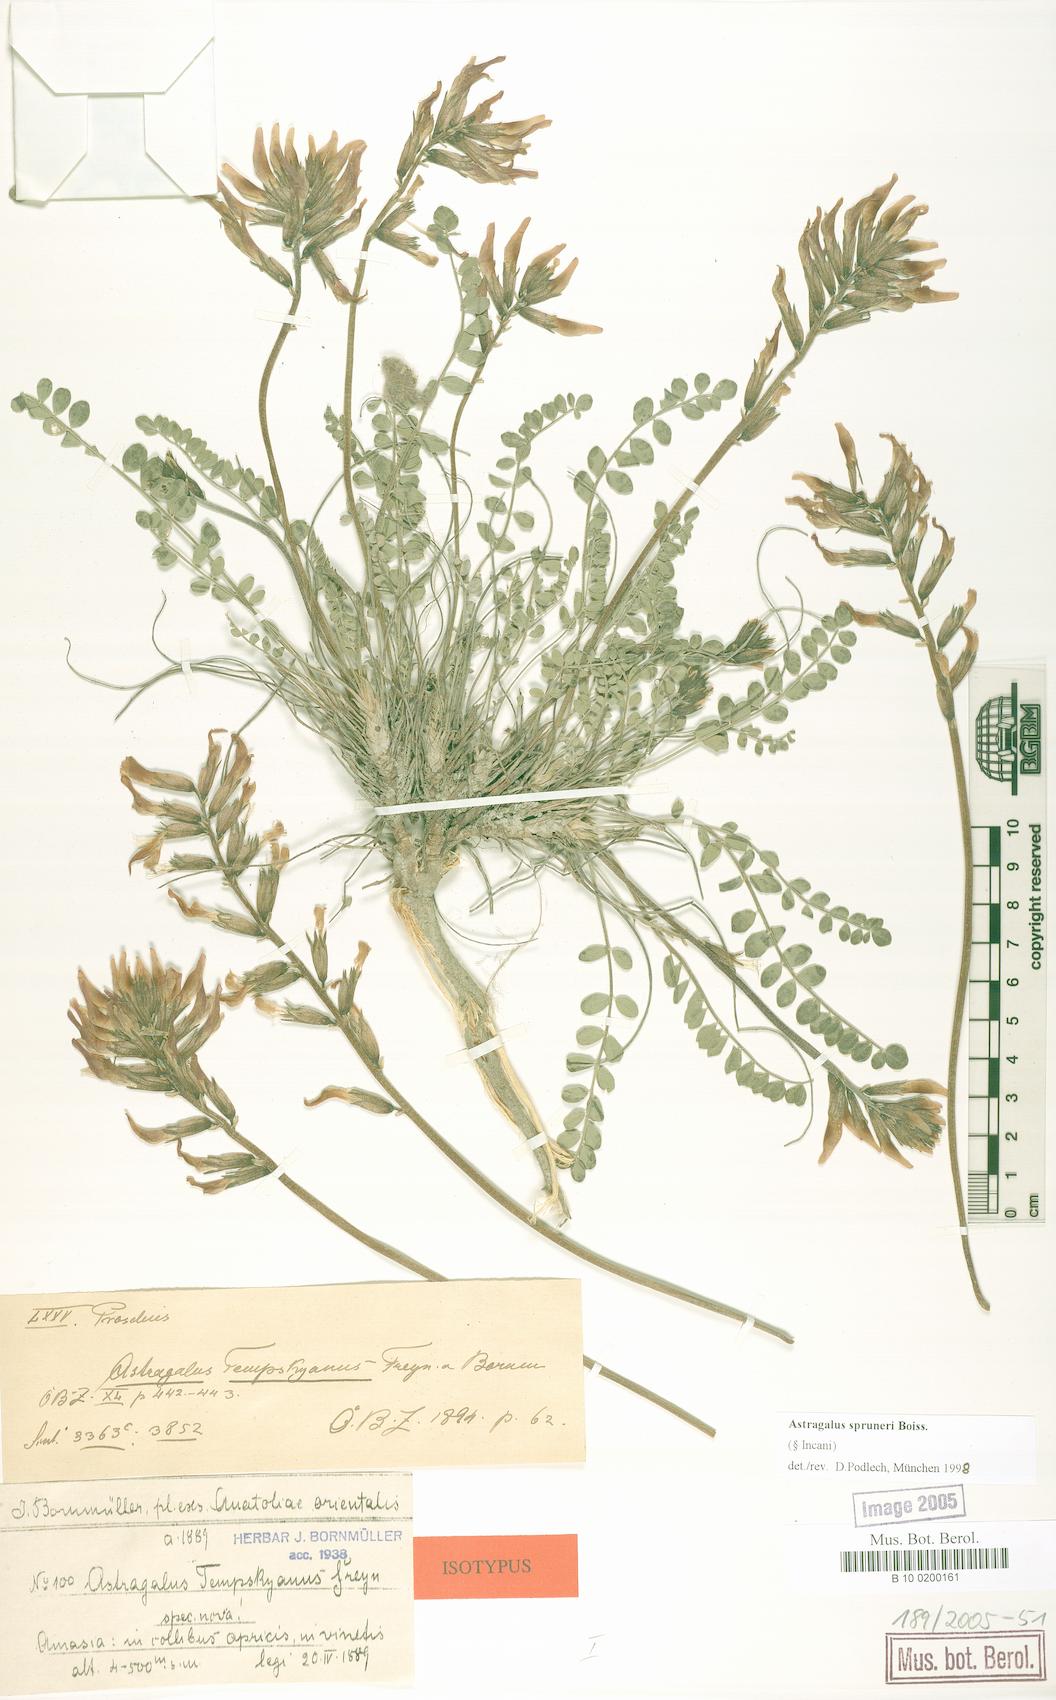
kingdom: Plantae
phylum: Tracheophyta
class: Magnoliopsida
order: Fabales
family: Fabaceae
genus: Astragalus
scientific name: Astragalus spruneri
